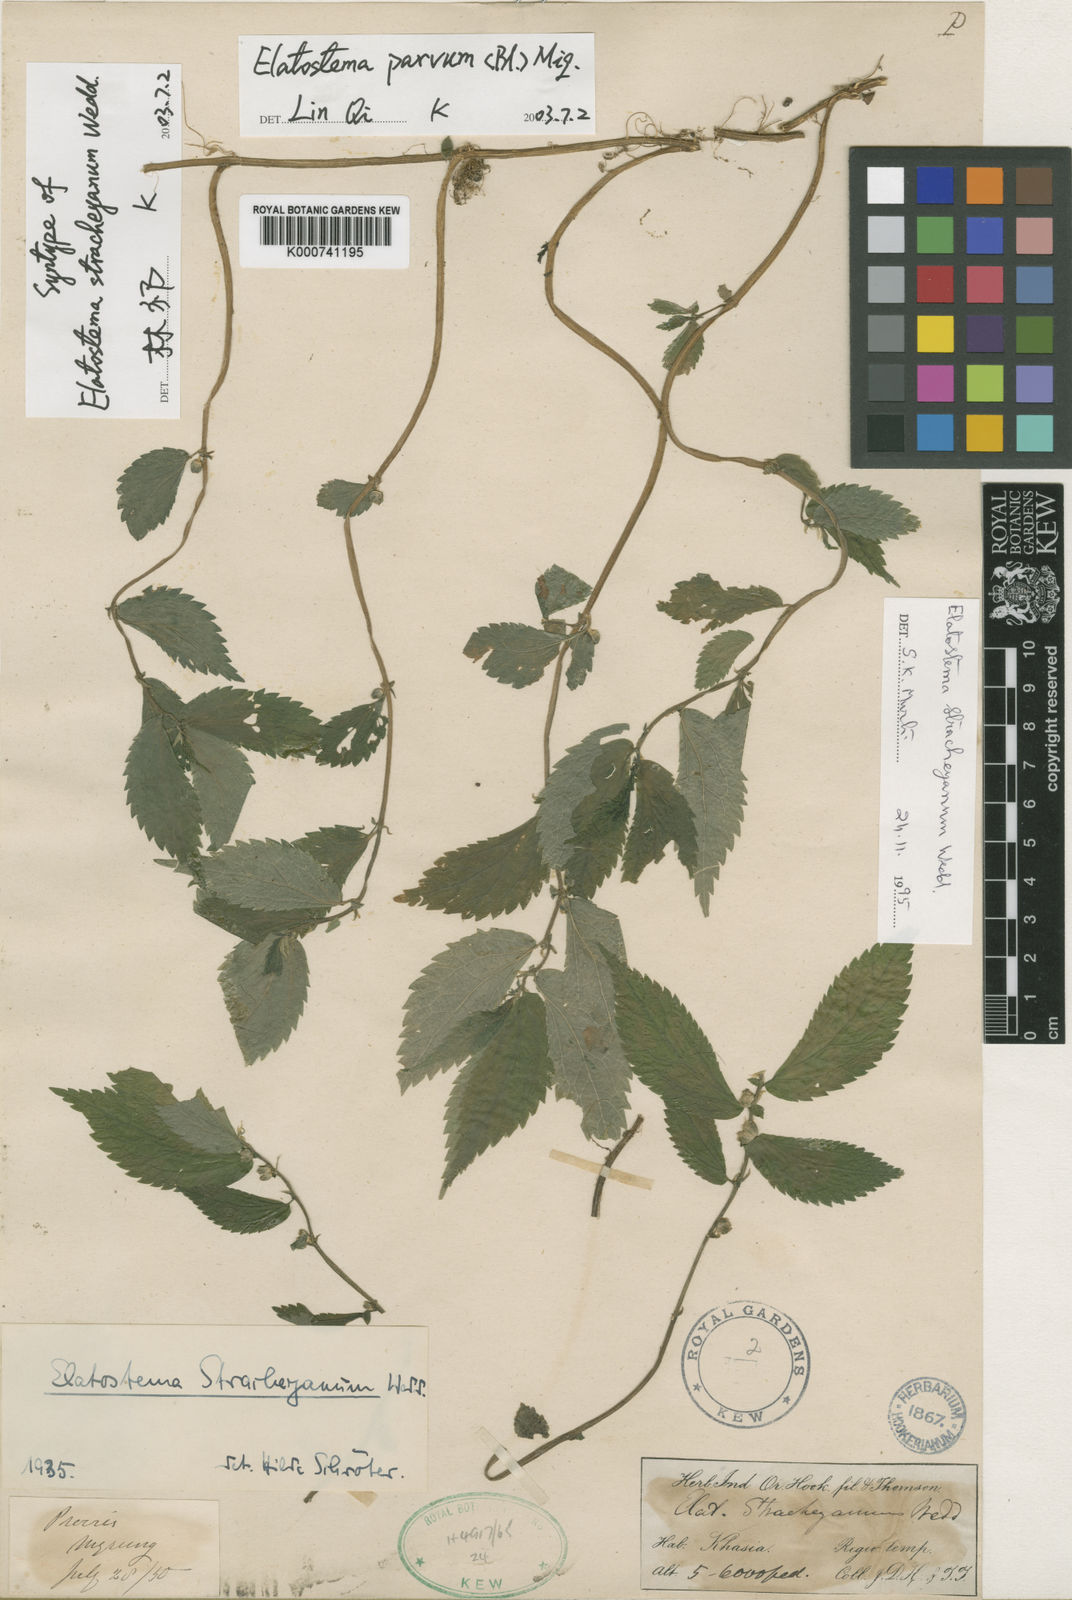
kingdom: Plantae
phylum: Tracheophyta
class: Magnoliopsida
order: Rosales
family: Urticaceae
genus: Elatostema
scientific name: Elatostema parvum
